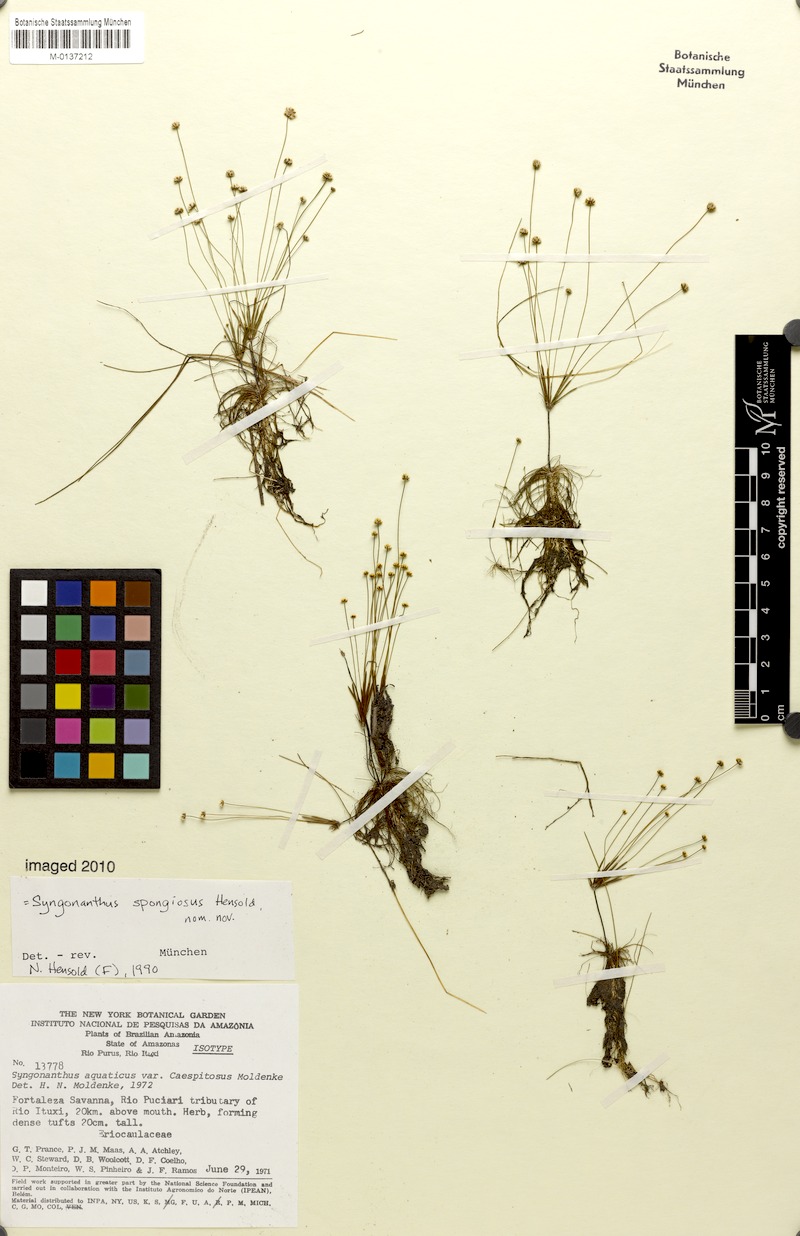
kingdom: Plantae
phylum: Tracheophyta
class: Liliopsida
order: Poales
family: Eriocaulaceae
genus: Syngonanthus
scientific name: Syngonanthus spongiosus
